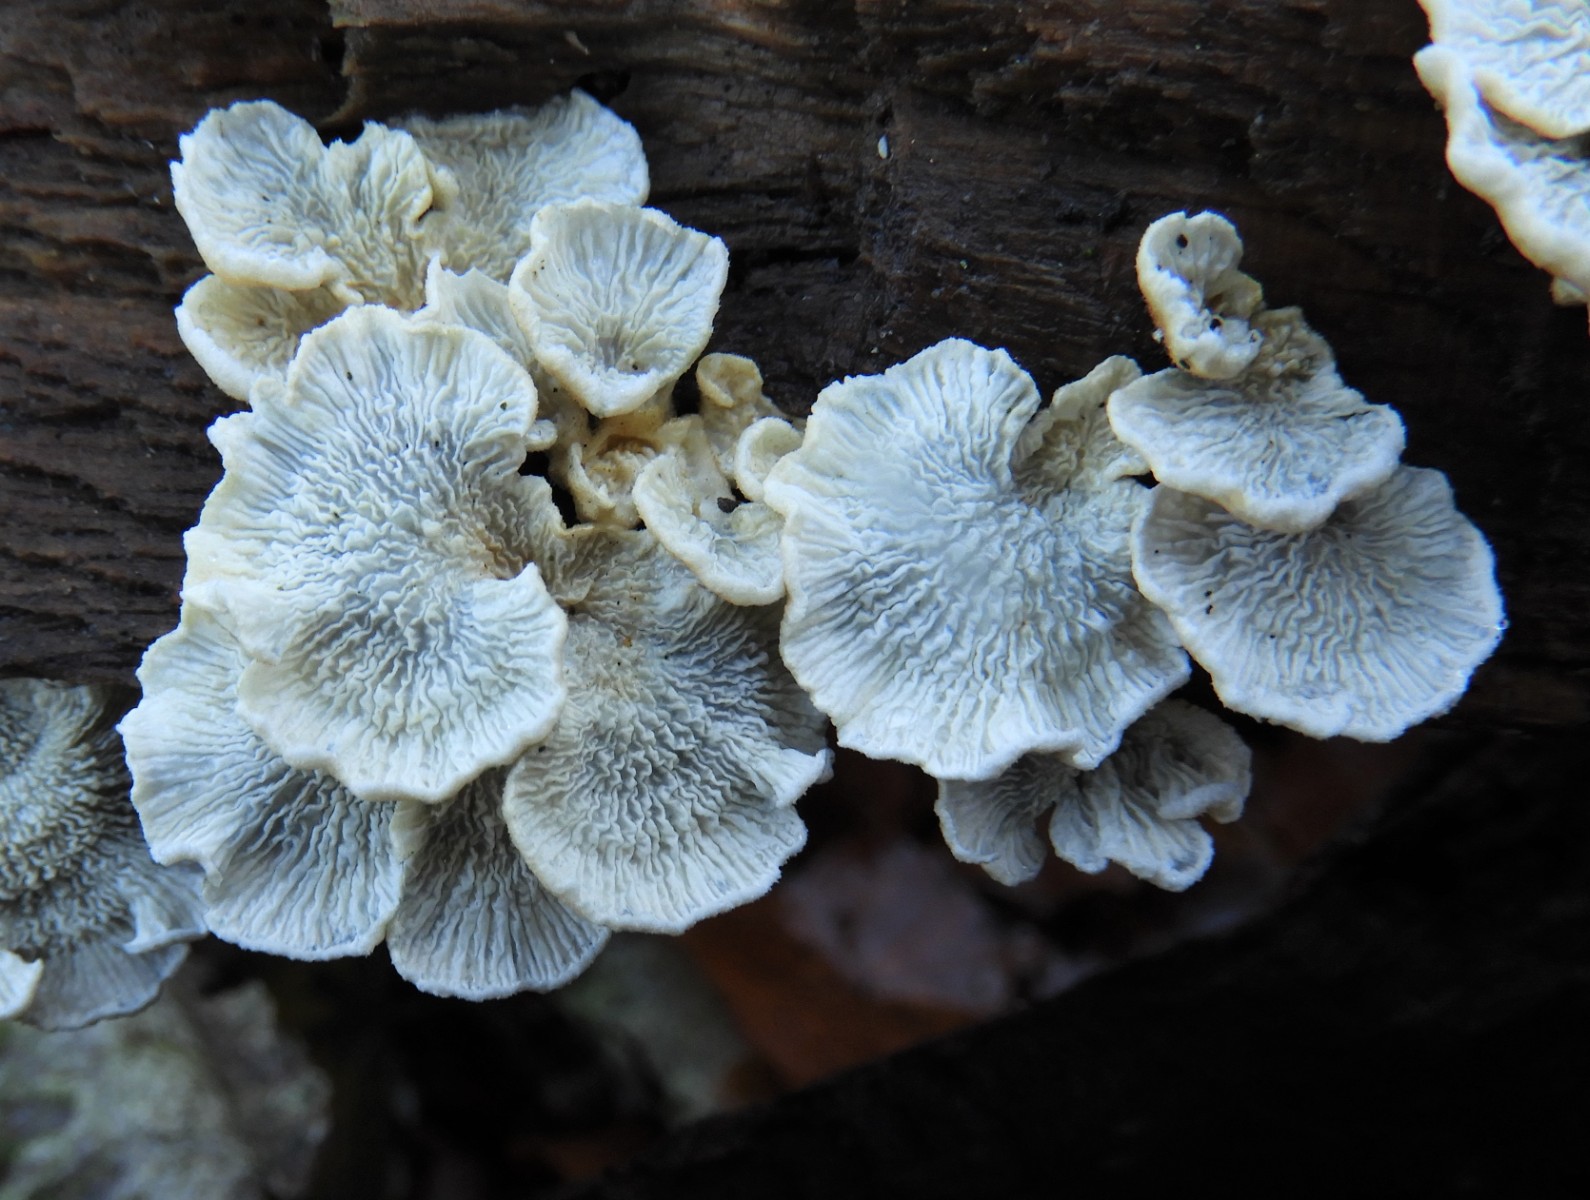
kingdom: Fungi
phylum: Basidiomycota
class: Agaricomycetes
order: Amylocorticiales
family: Amylocorticiaceae
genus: Plicaturopsis
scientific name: Plicaturopsis crispa
